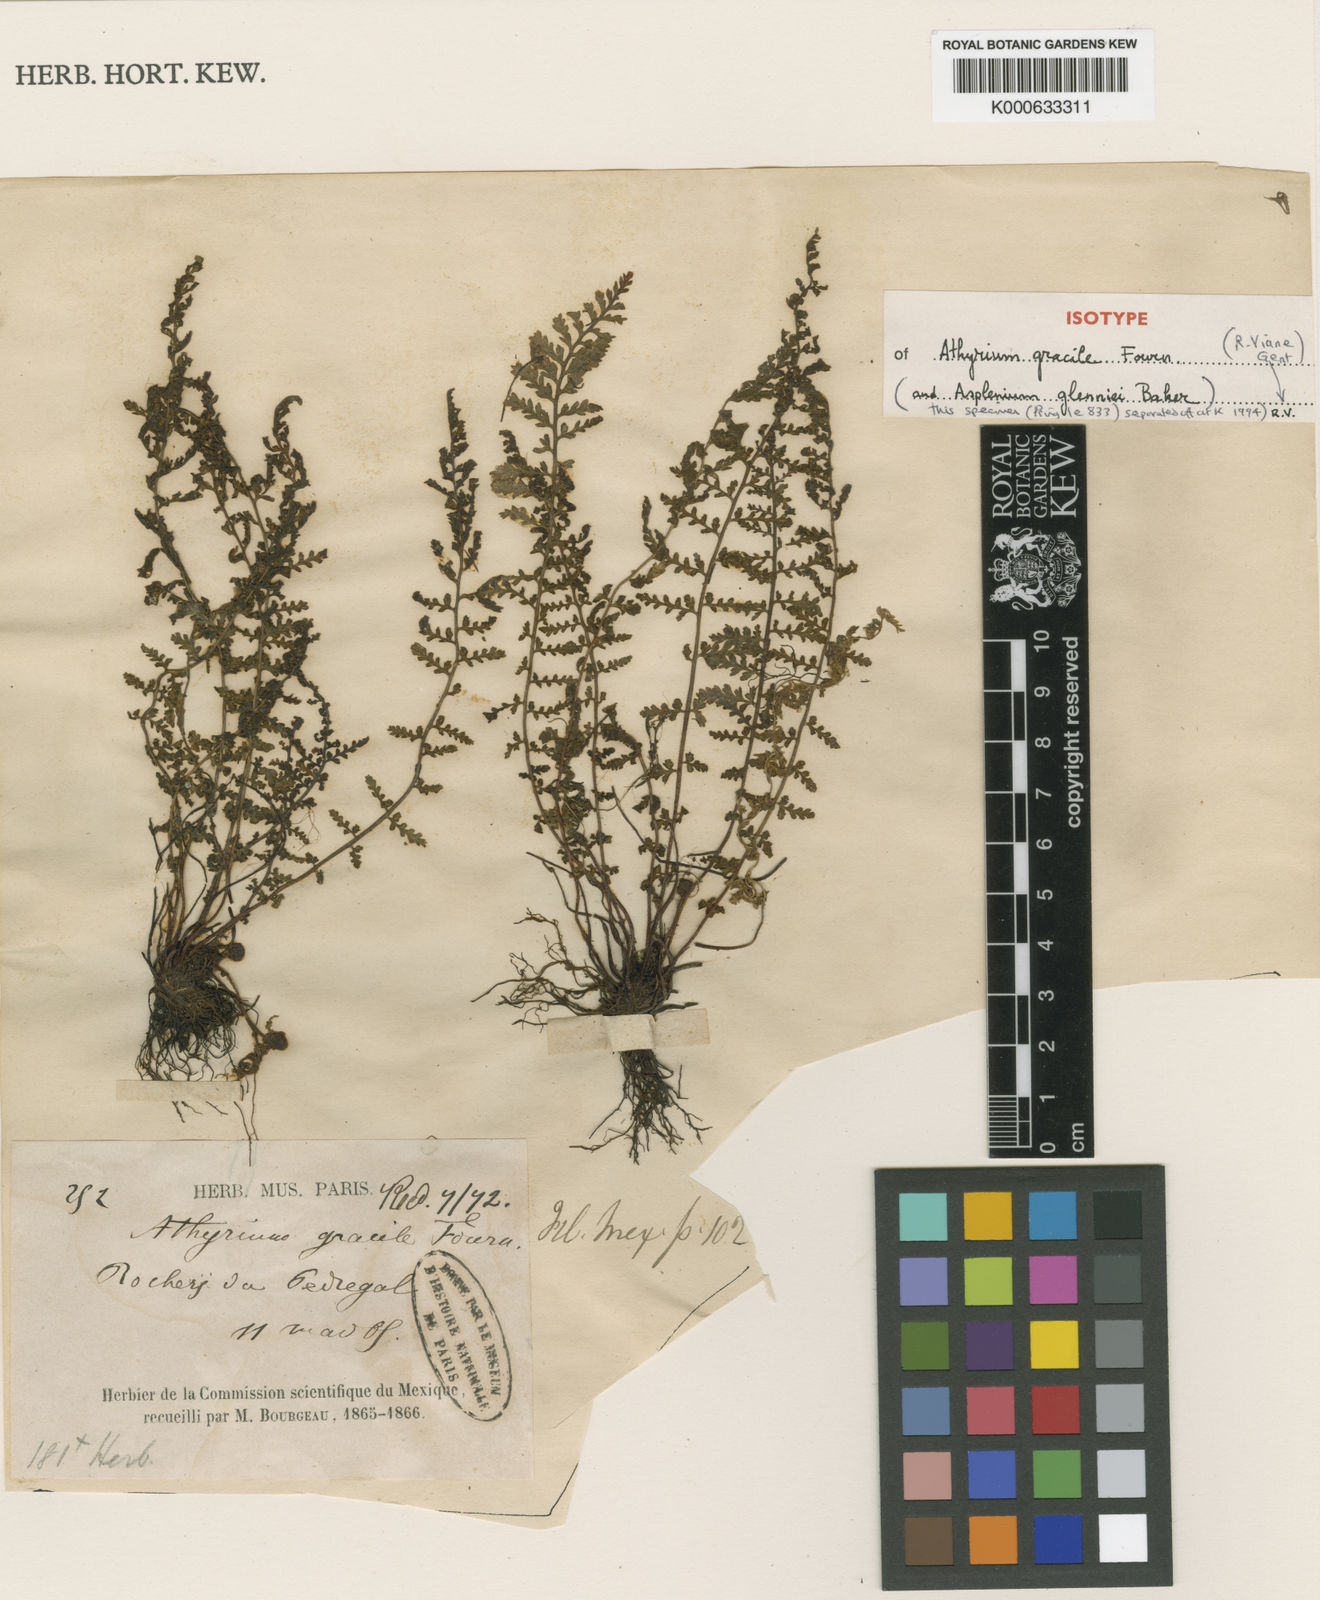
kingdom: Plantae
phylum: Tracheophyta
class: Polypodiopsida
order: Polypodiales
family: Aspleniaceae
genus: Asplenium
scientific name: Asplenium exiguum
